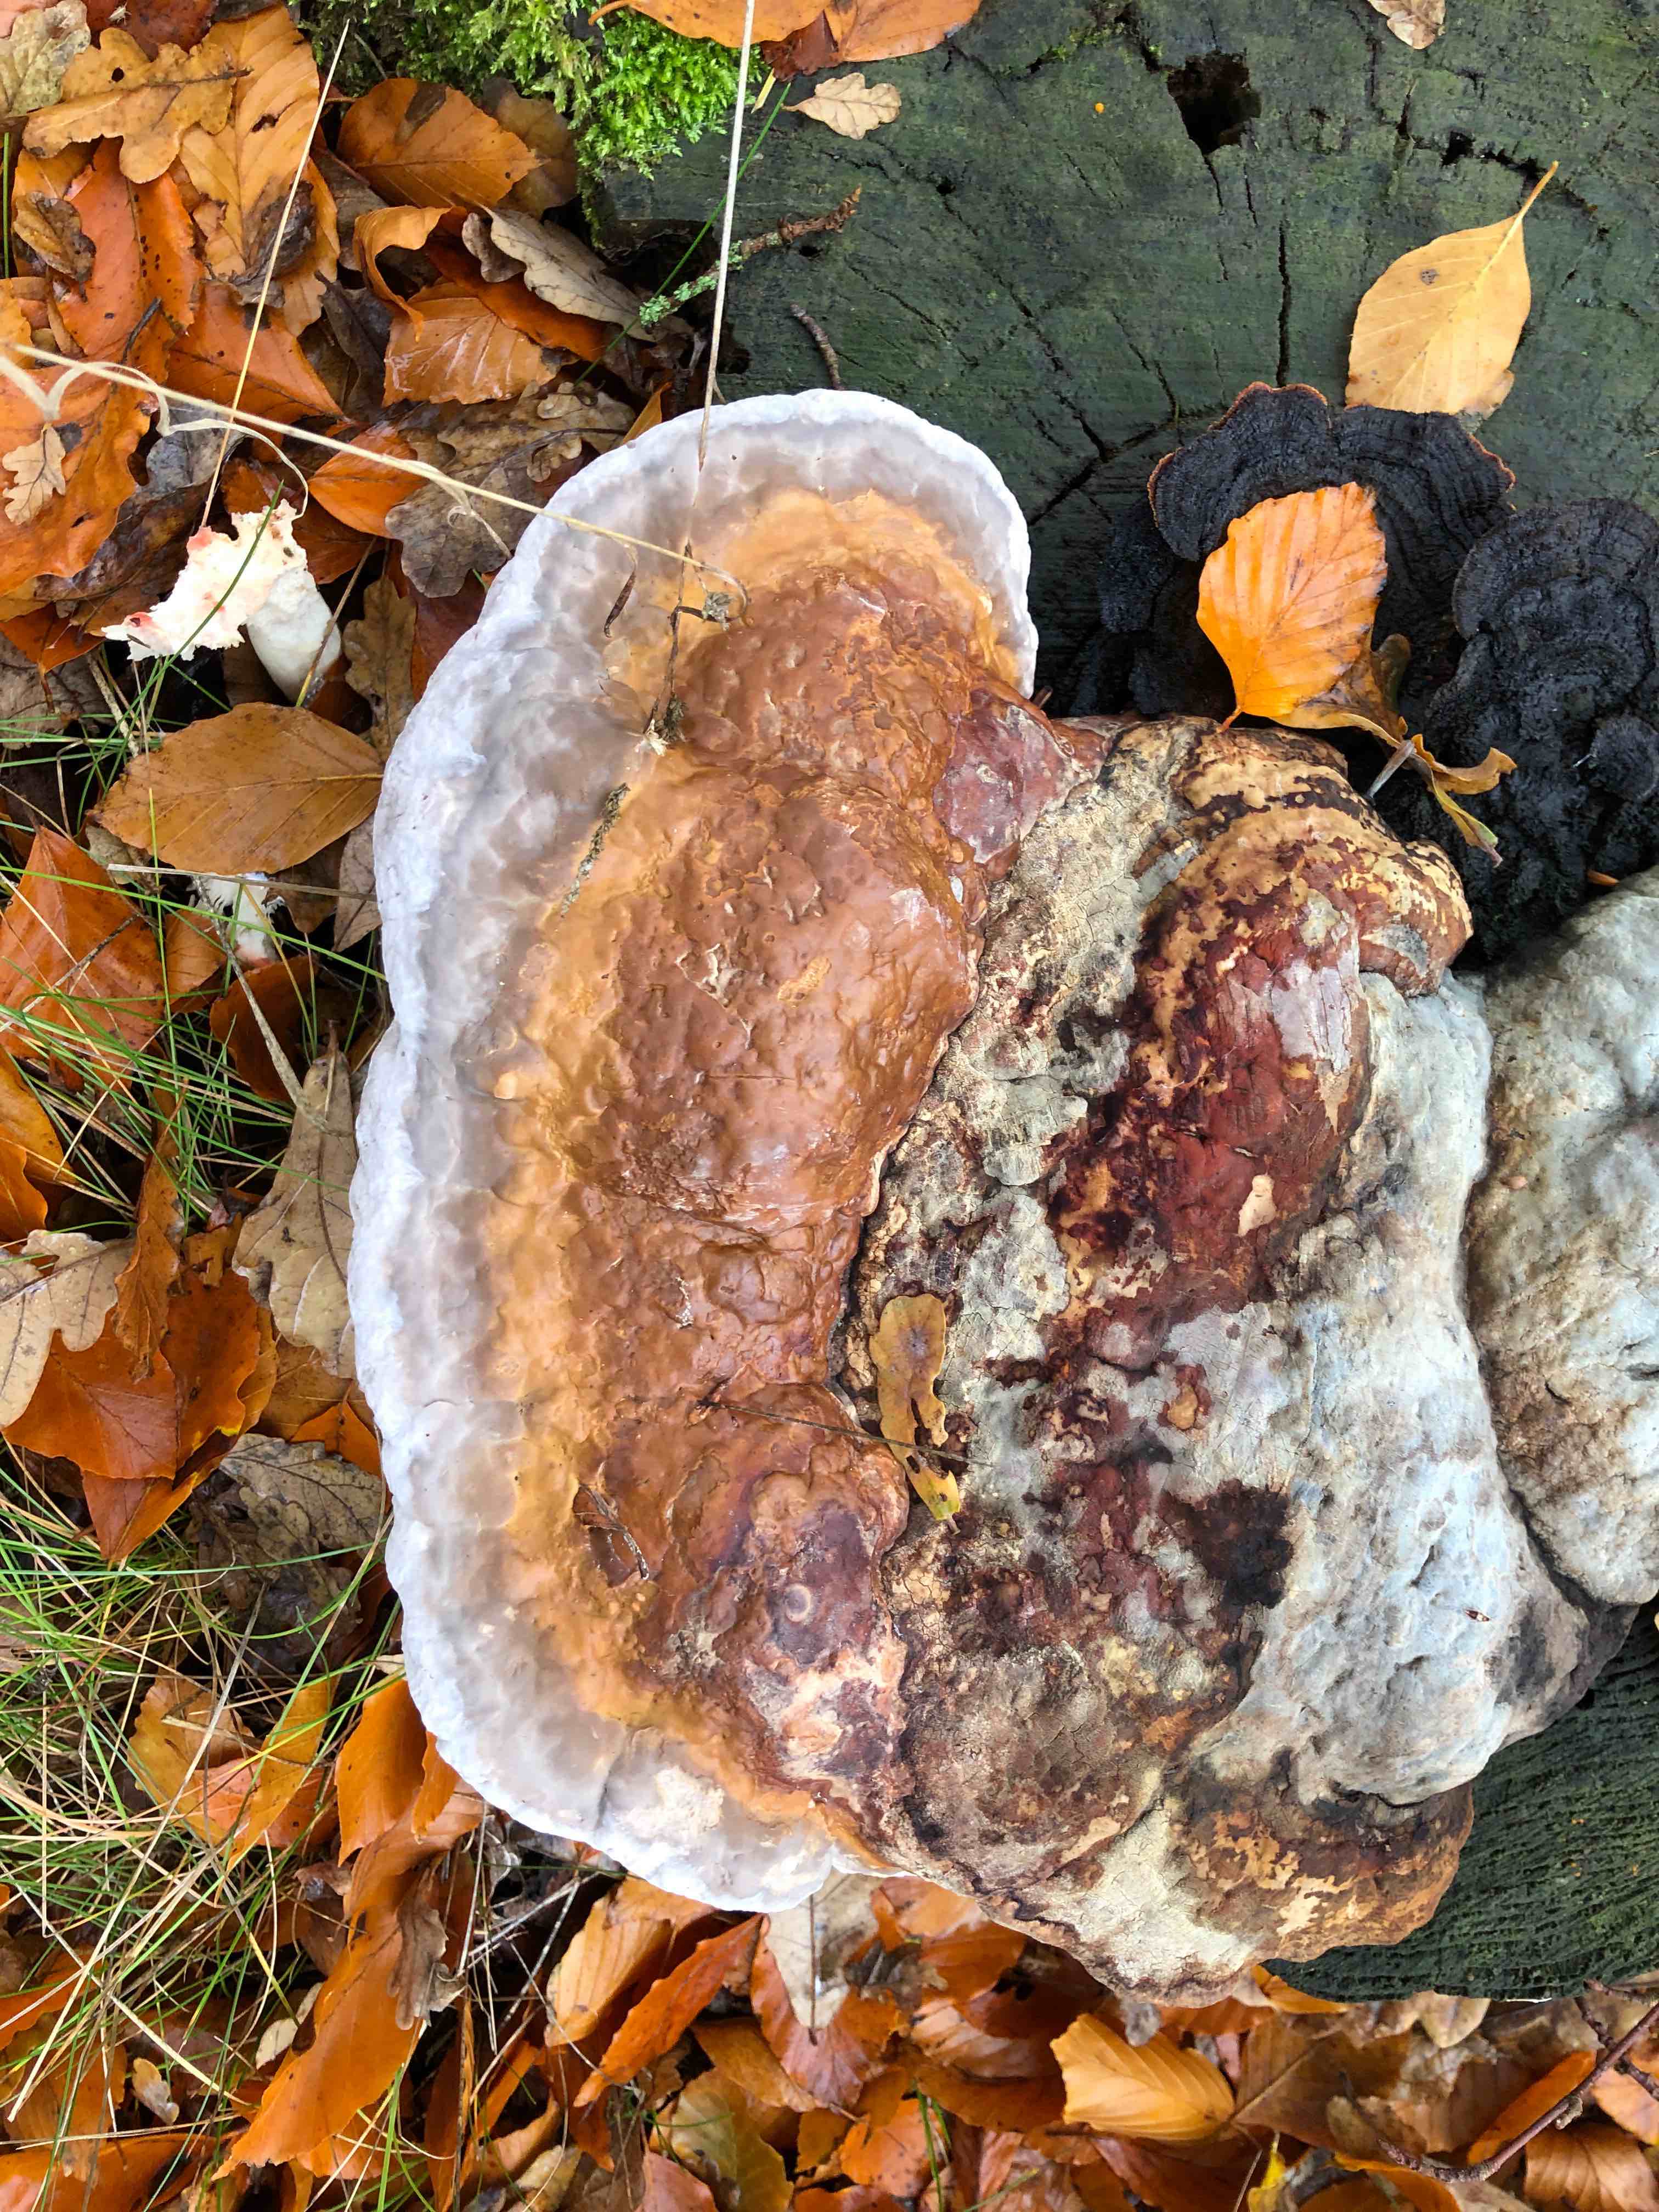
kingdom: Fungi
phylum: Basidiomycota
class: Agaricomycetes
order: Polyporales
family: Fomitopsidaceae
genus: Fomitopsis
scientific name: Fomitopsis pinicola
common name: randbæltet hovporesvamp
